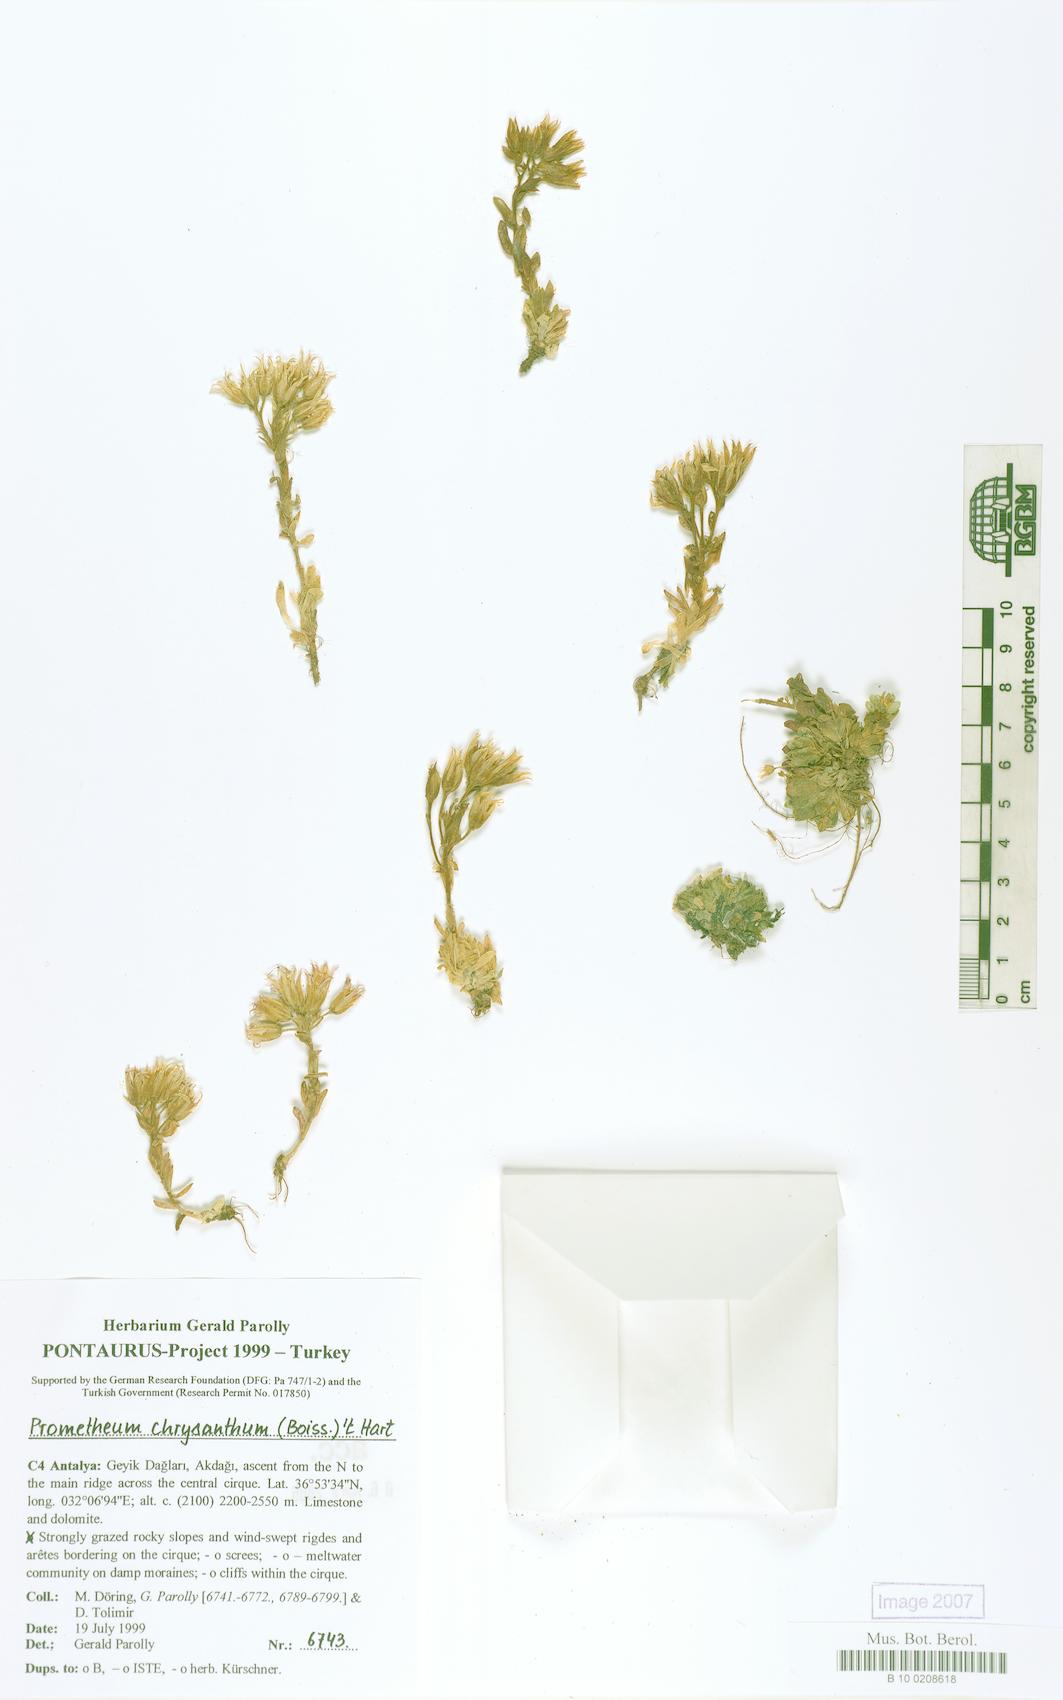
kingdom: Plantae
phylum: Tracheophyta
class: Magnoliopsida
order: Saxifragales
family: Crassulaceae
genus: Prometheum
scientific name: Prometheum chrysanthum
